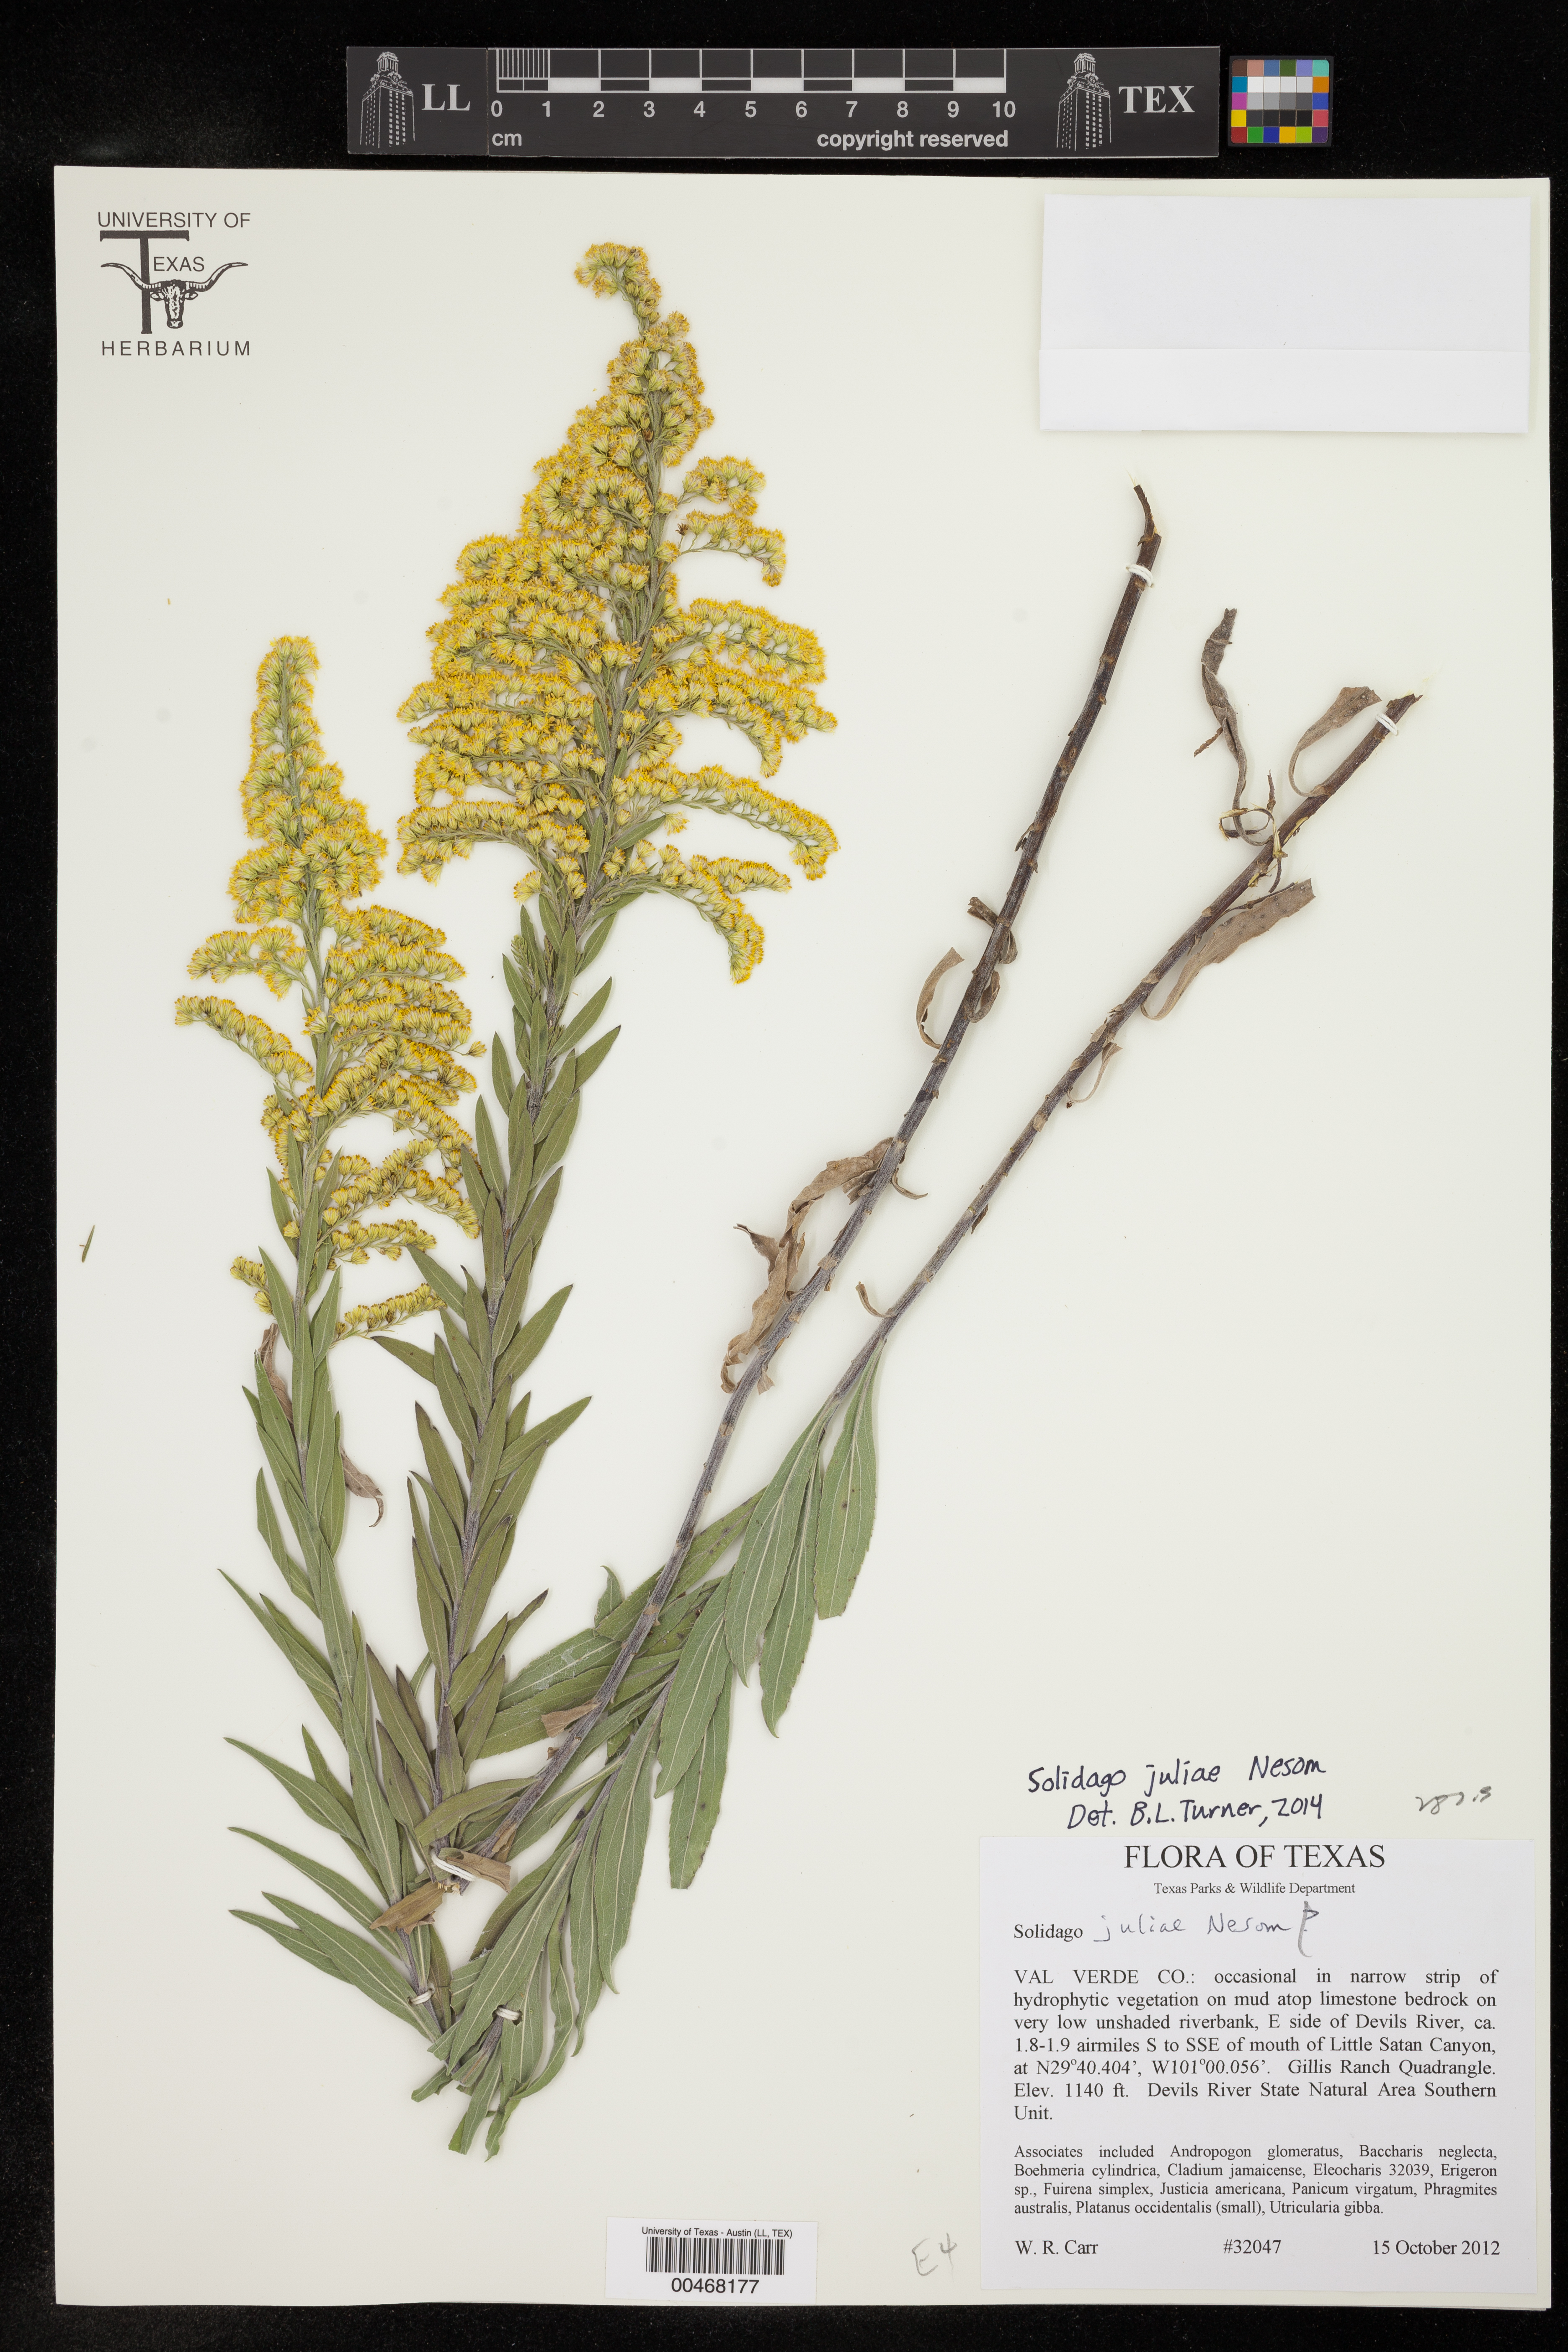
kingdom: Plantae
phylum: Tracheophyta
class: Magnoliopsida
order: Asterales
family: Asteraceae
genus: Solidago
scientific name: Solidago juliae
